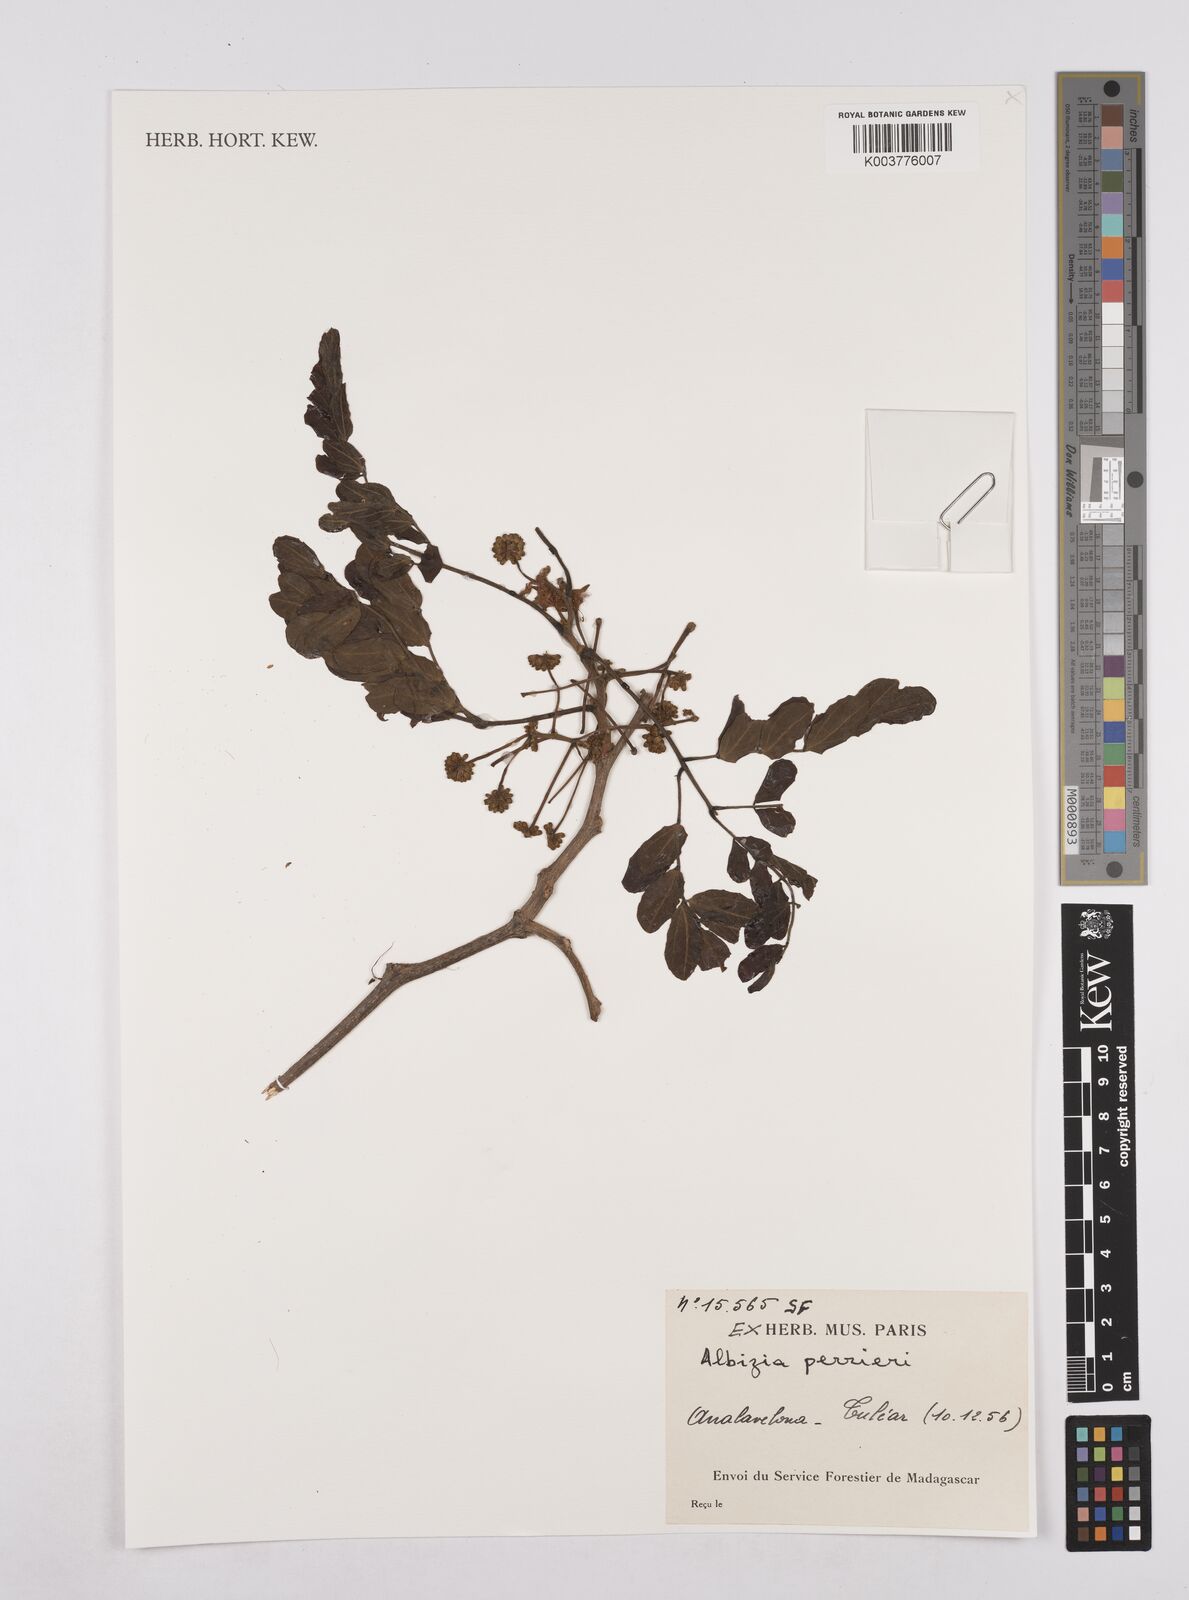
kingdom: Plantae
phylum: Tracheophyta
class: Magnoliopsida
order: Fabales
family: Fabaceae
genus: Albizia
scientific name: Albizia perrieri
